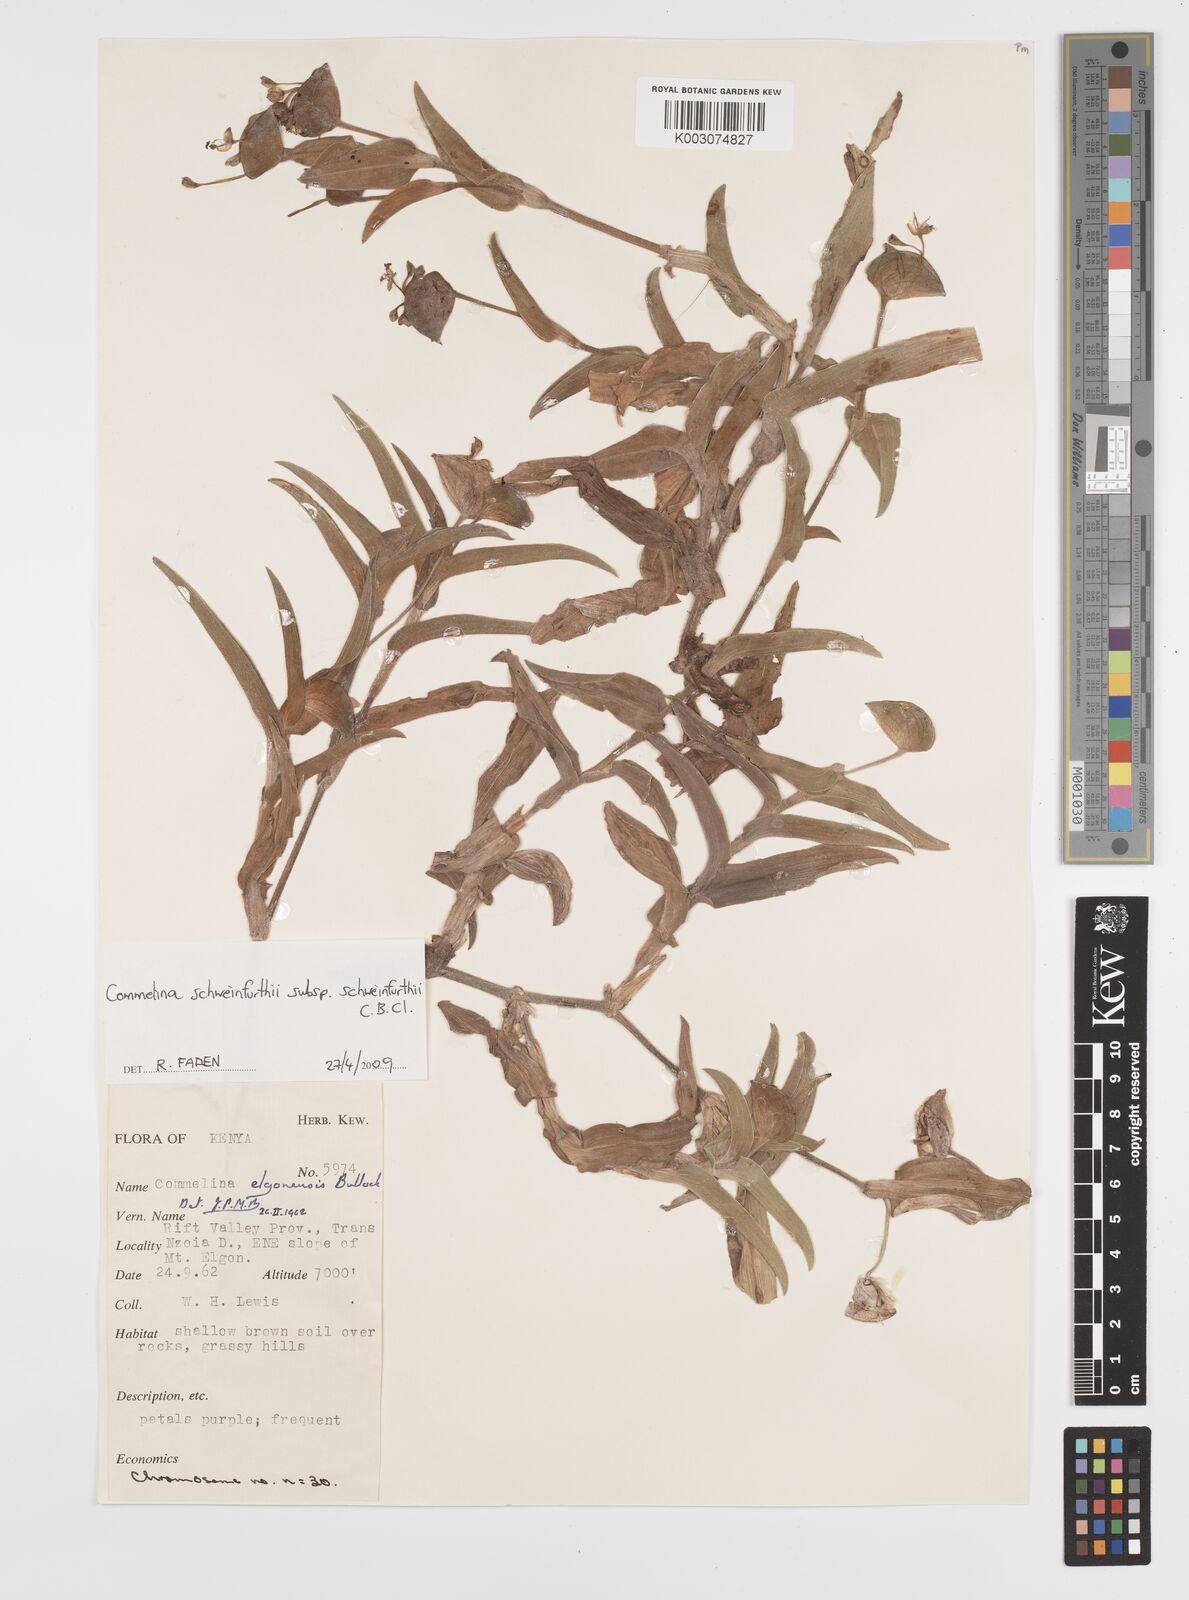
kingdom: Plantae
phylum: Tracheophyta
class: Liliopsida
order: Commelinales
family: Commelinaceae
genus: Commelina
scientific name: Commelina schweinfurthii
